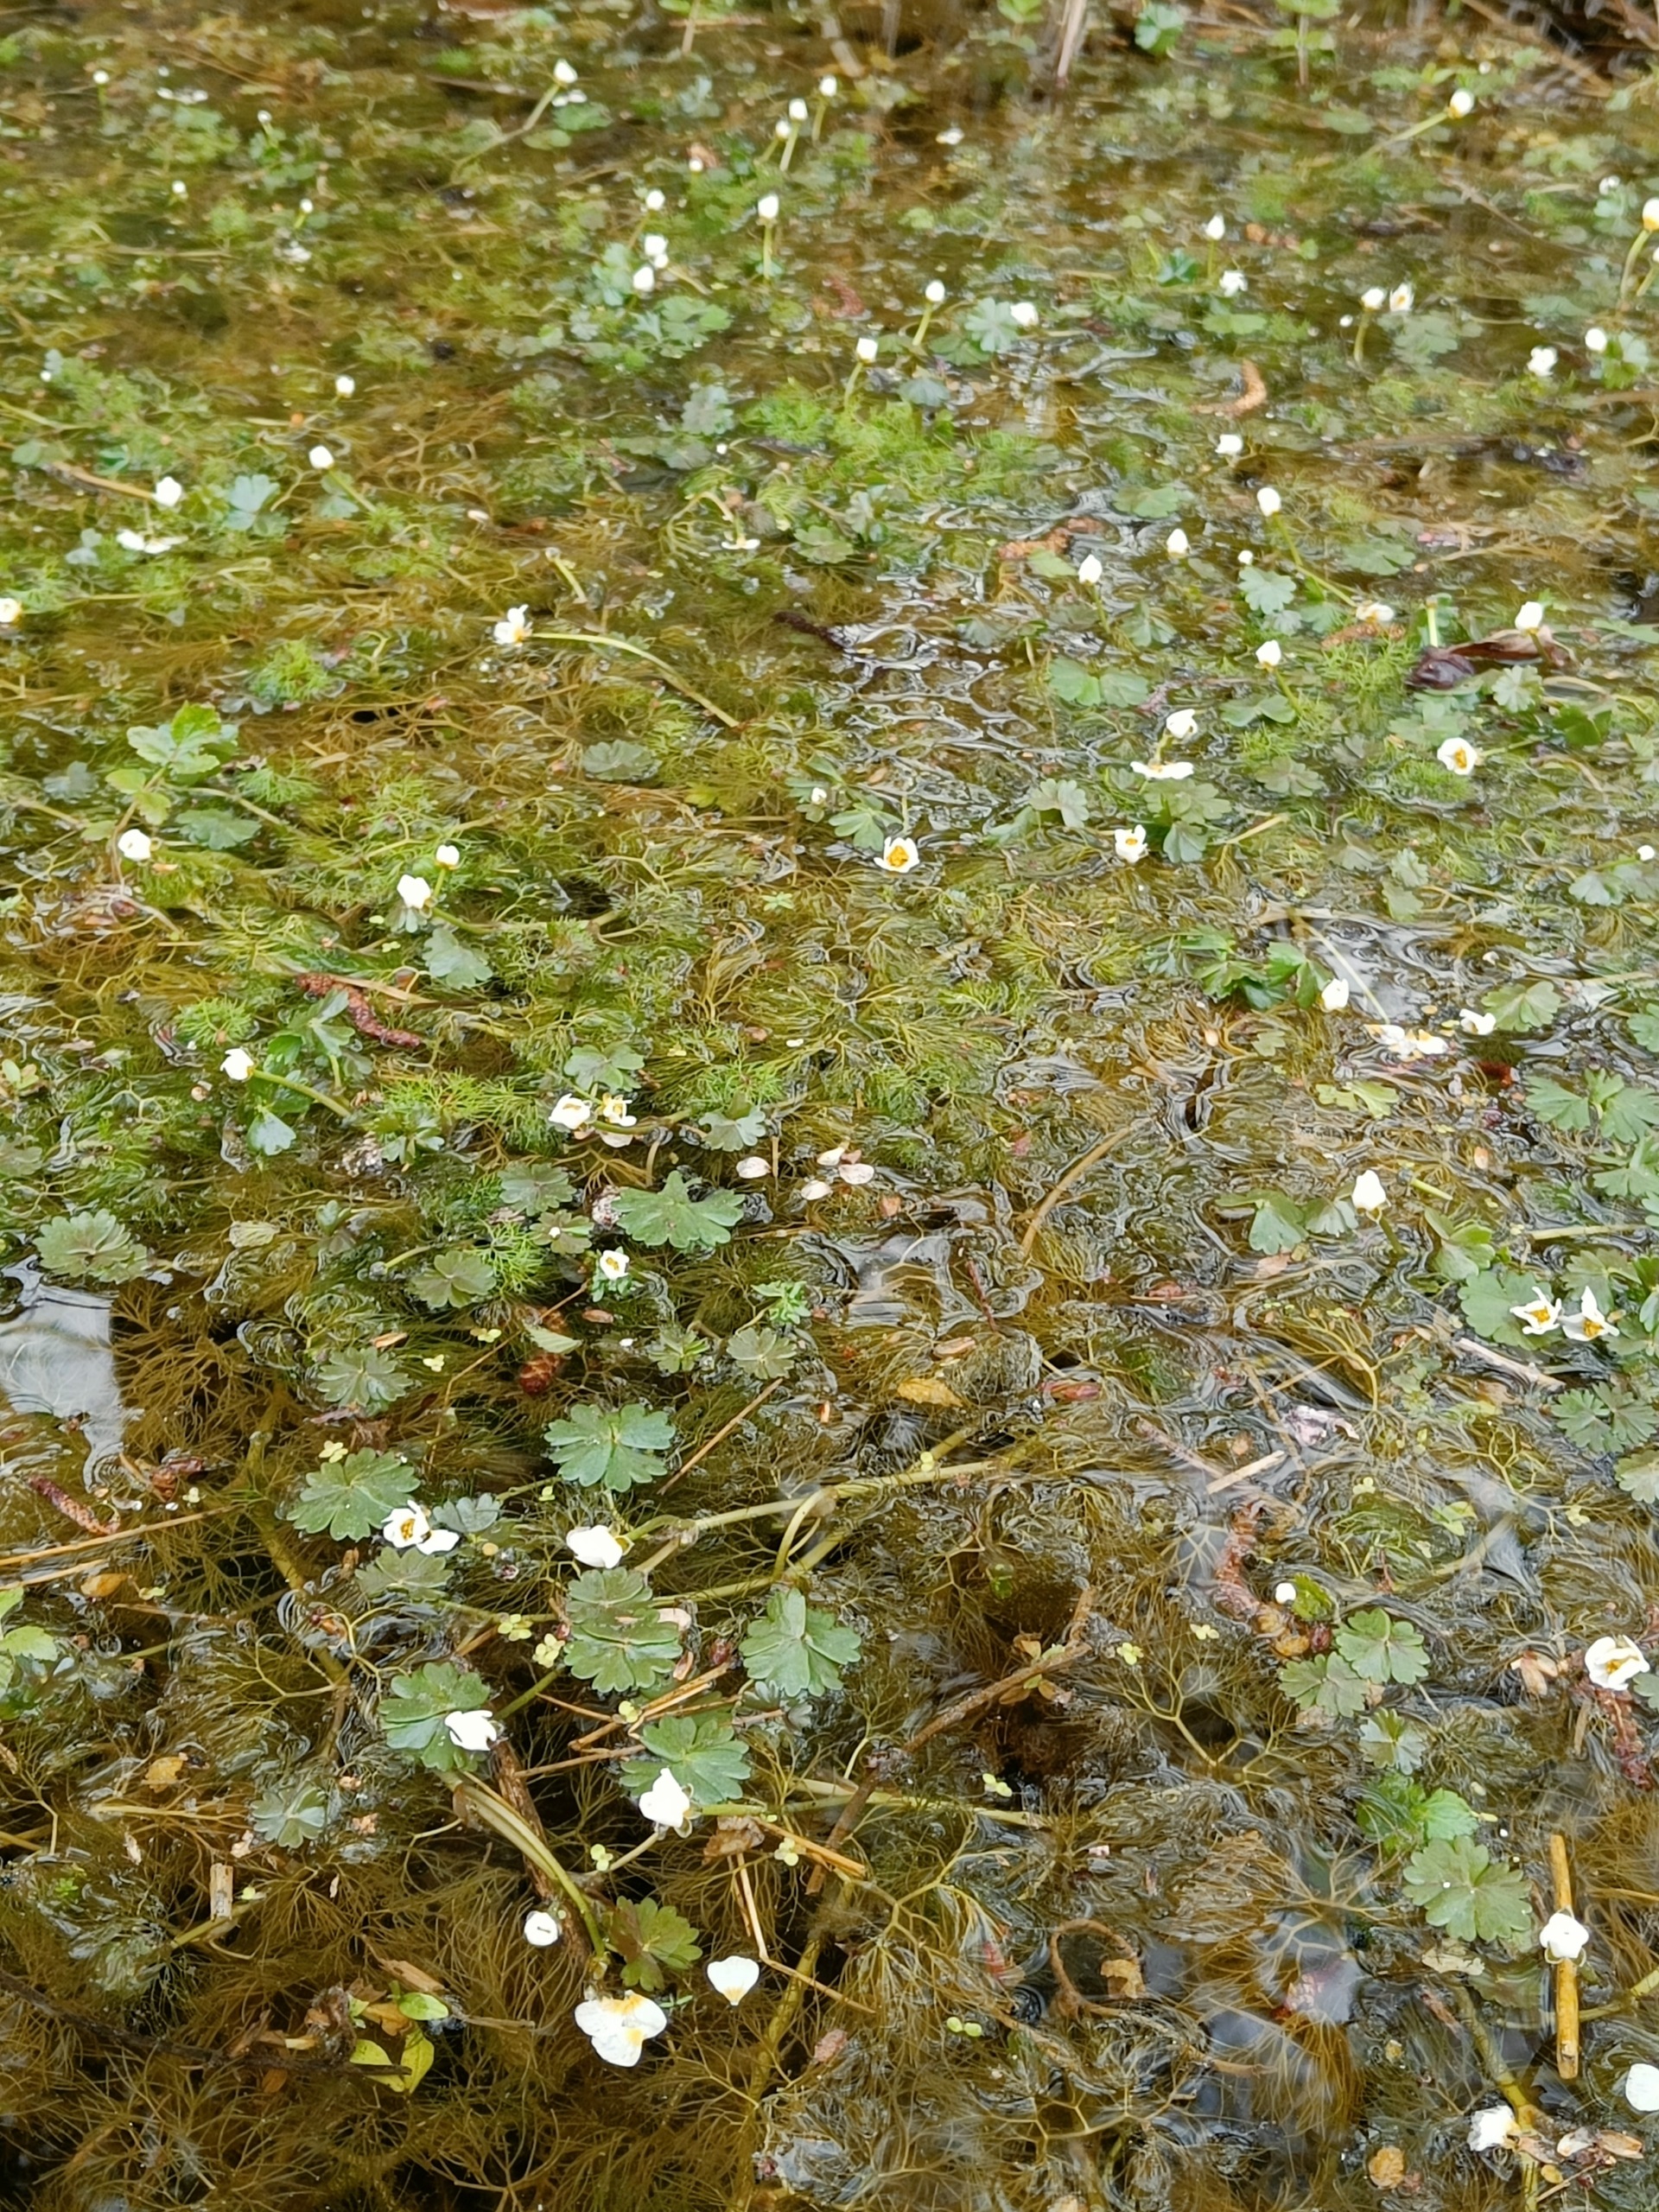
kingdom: Plantae
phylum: Tracheophyta
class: Magnoliopsida
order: Ranunculales
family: Ranunculaceae
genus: Ranunculus
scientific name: Ranunculus aquatilis
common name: Almindelig vandranunkel
